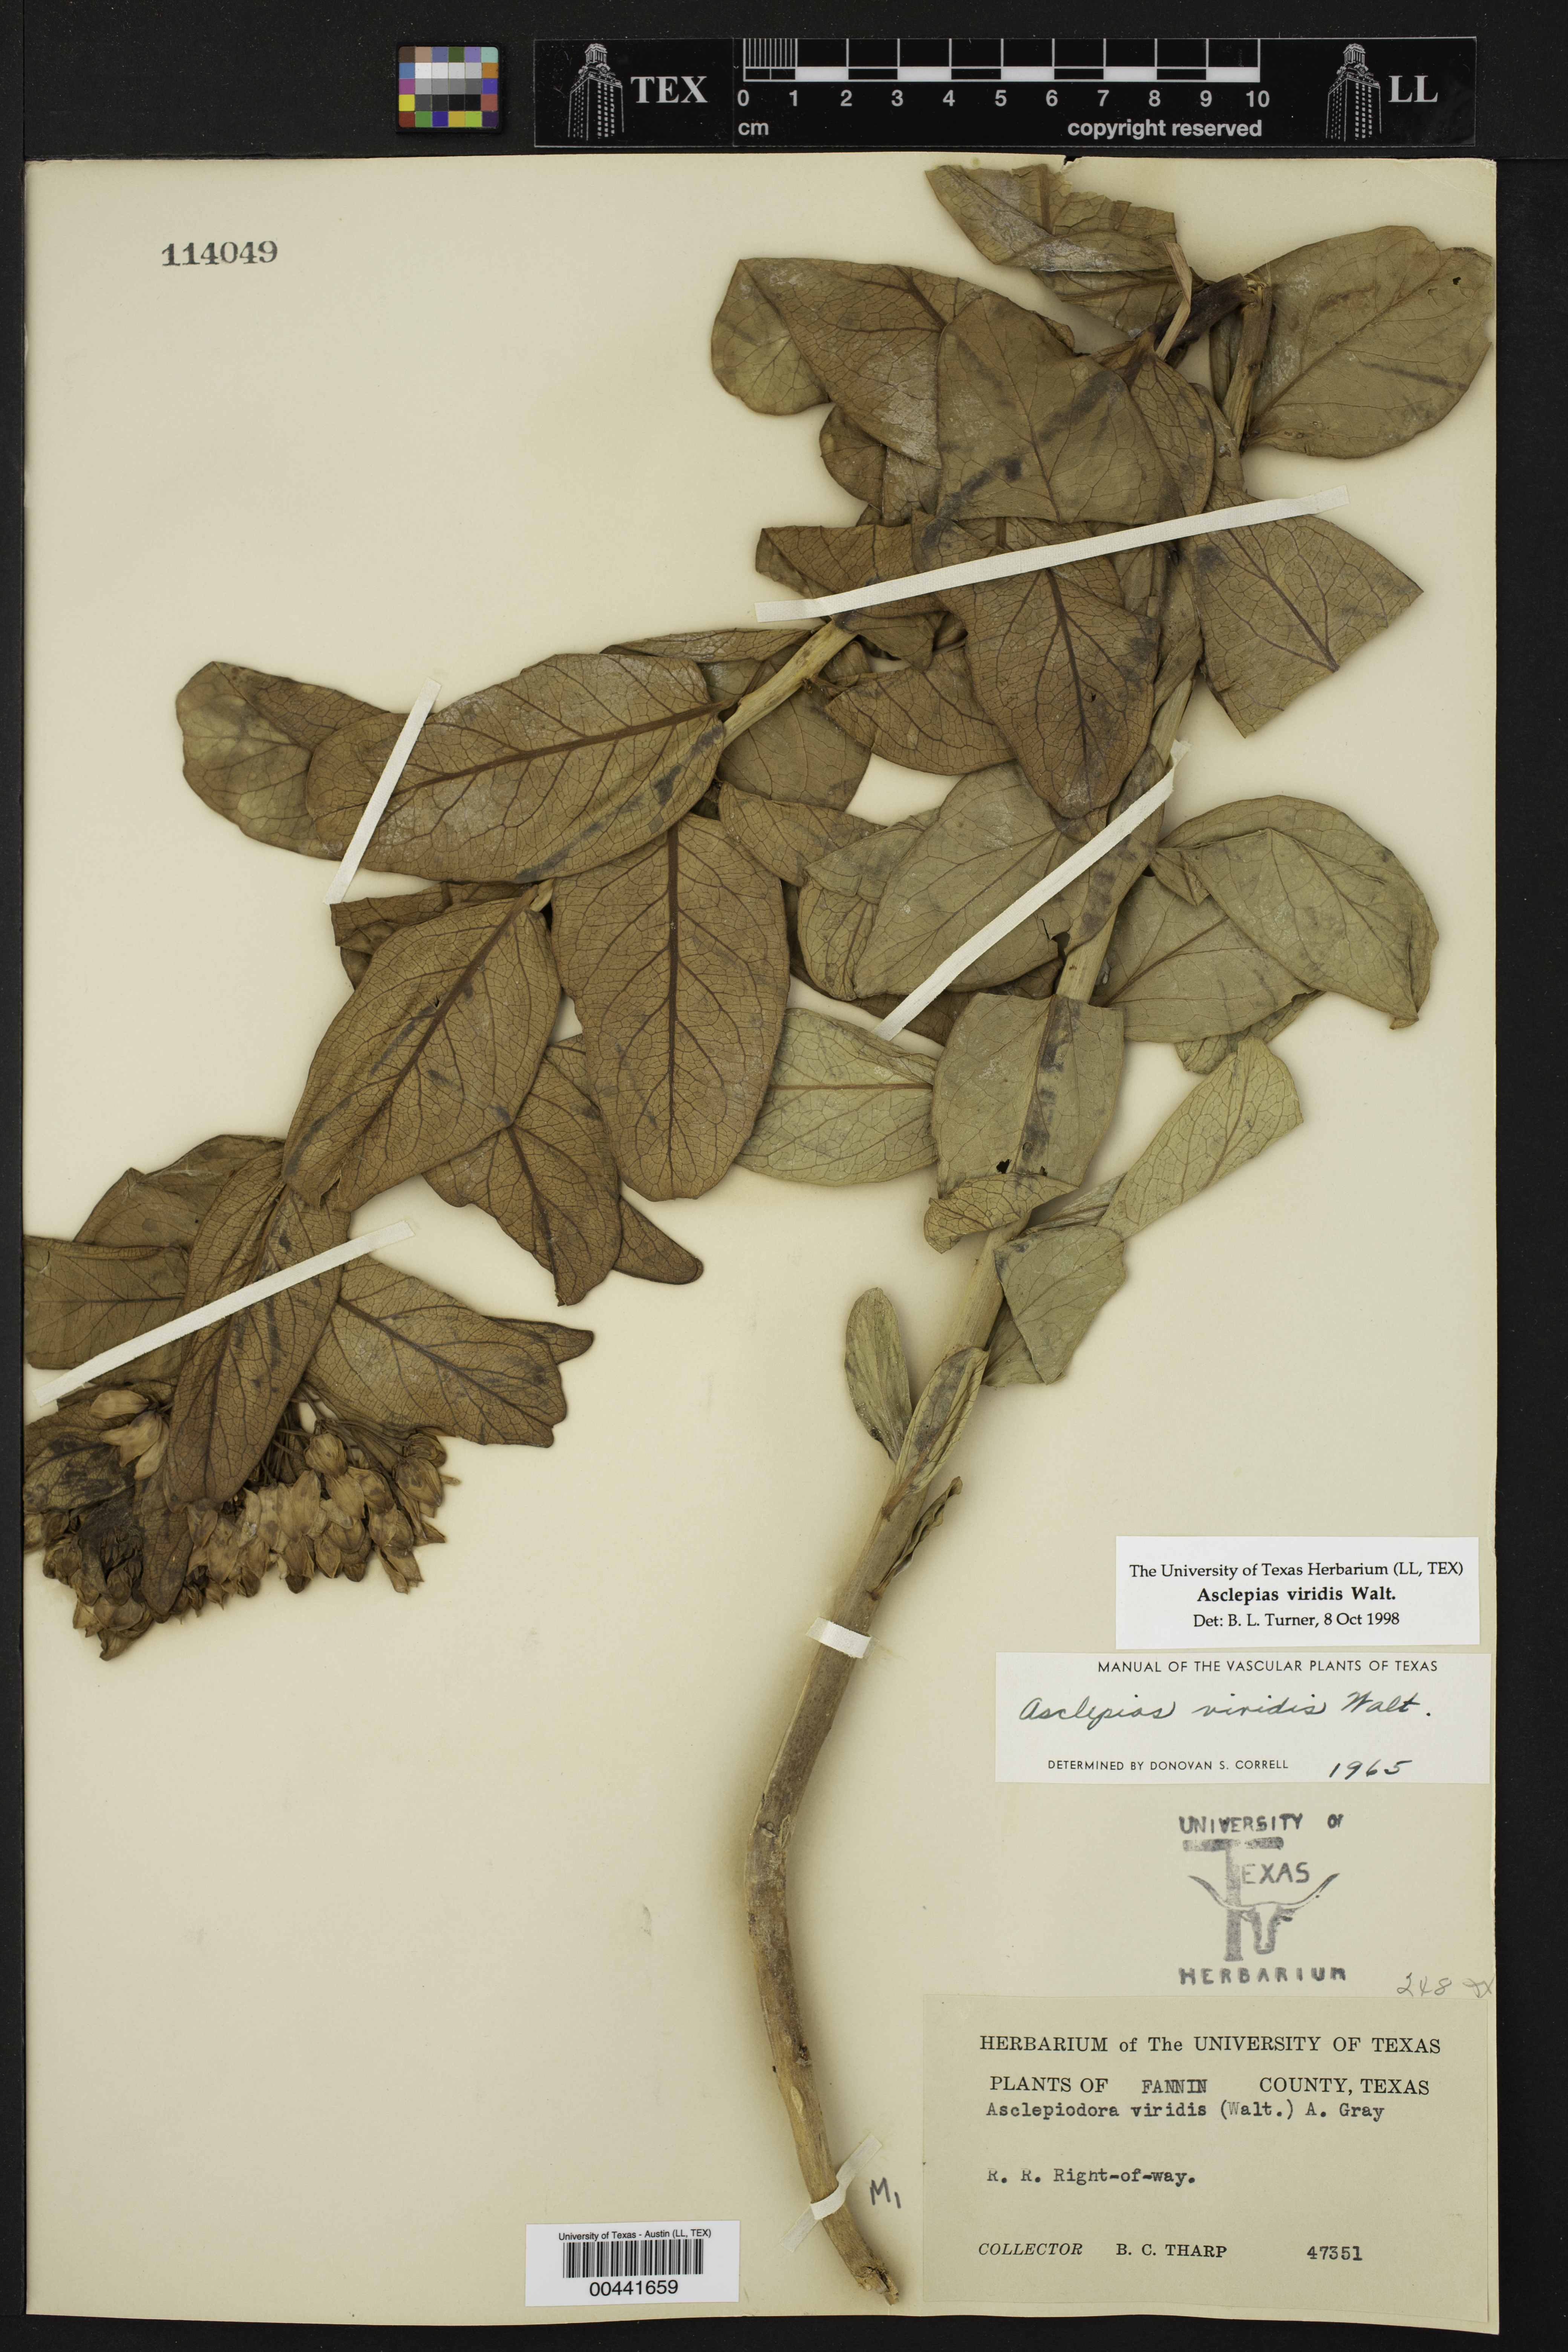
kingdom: Plantae
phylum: Tracheophyta
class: Magnoliopsida
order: Gentianales
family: Apocynaceae
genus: Asclepias
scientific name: Asclepias viridis
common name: Antelope-horns
